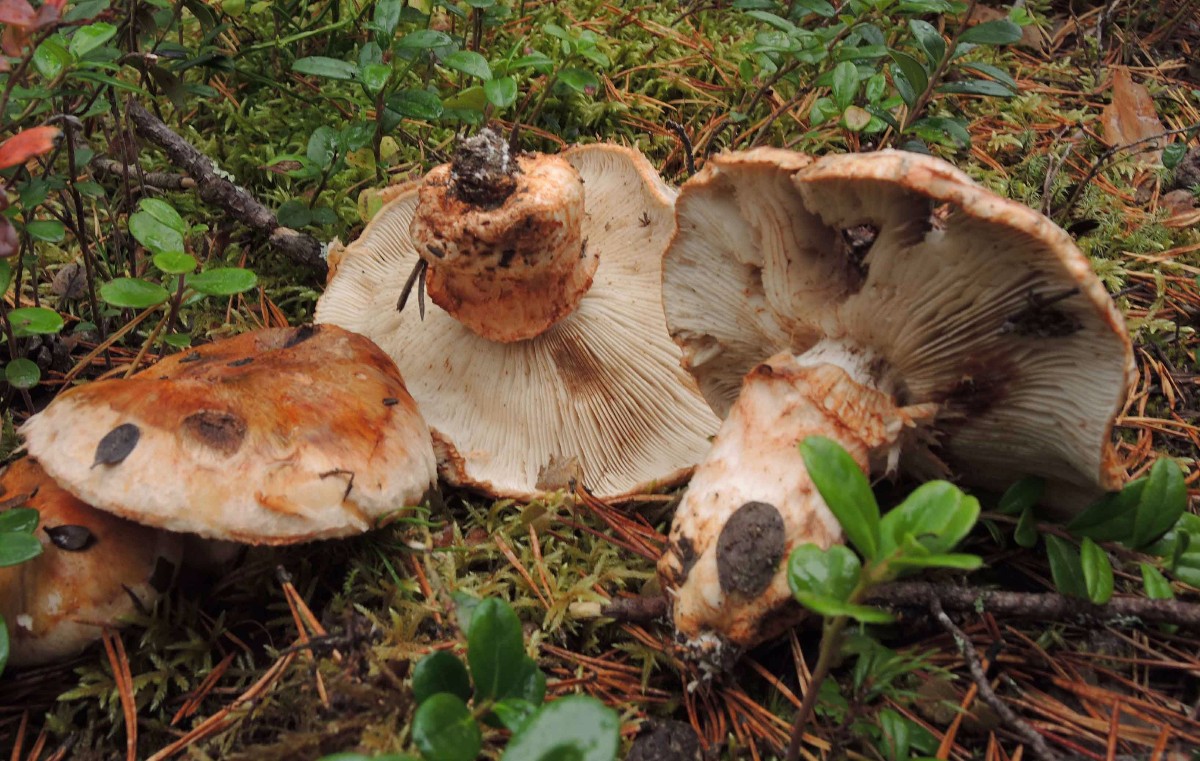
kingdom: Fungi
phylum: Basidiomycota
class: Agaricomycetes
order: Agaricales
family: Tricholomataceae
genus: Tricholoma
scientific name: Tricholoma focale
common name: halsbånd-ridderhat
